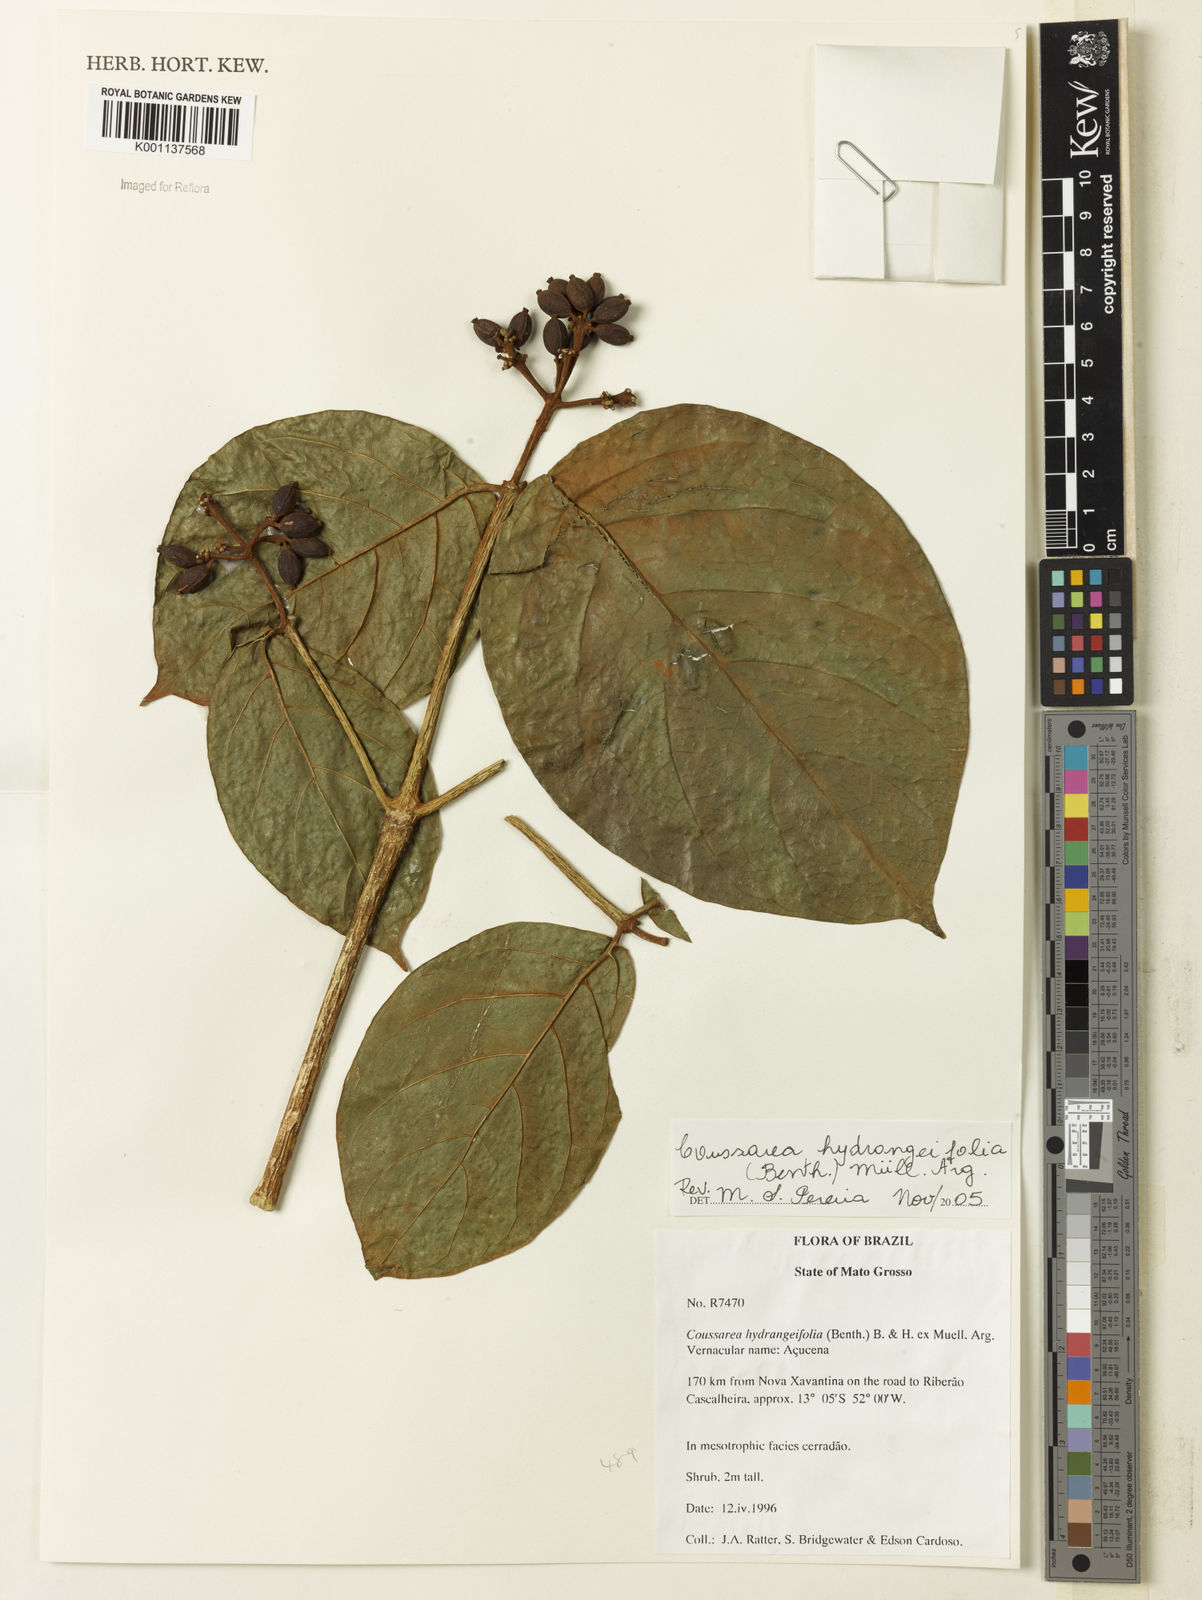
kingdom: Plantae
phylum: Tracheophyta
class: Magnoliopsida
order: Gentianales
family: Rubiaceae
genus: Coussarea
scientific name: Coussarea
